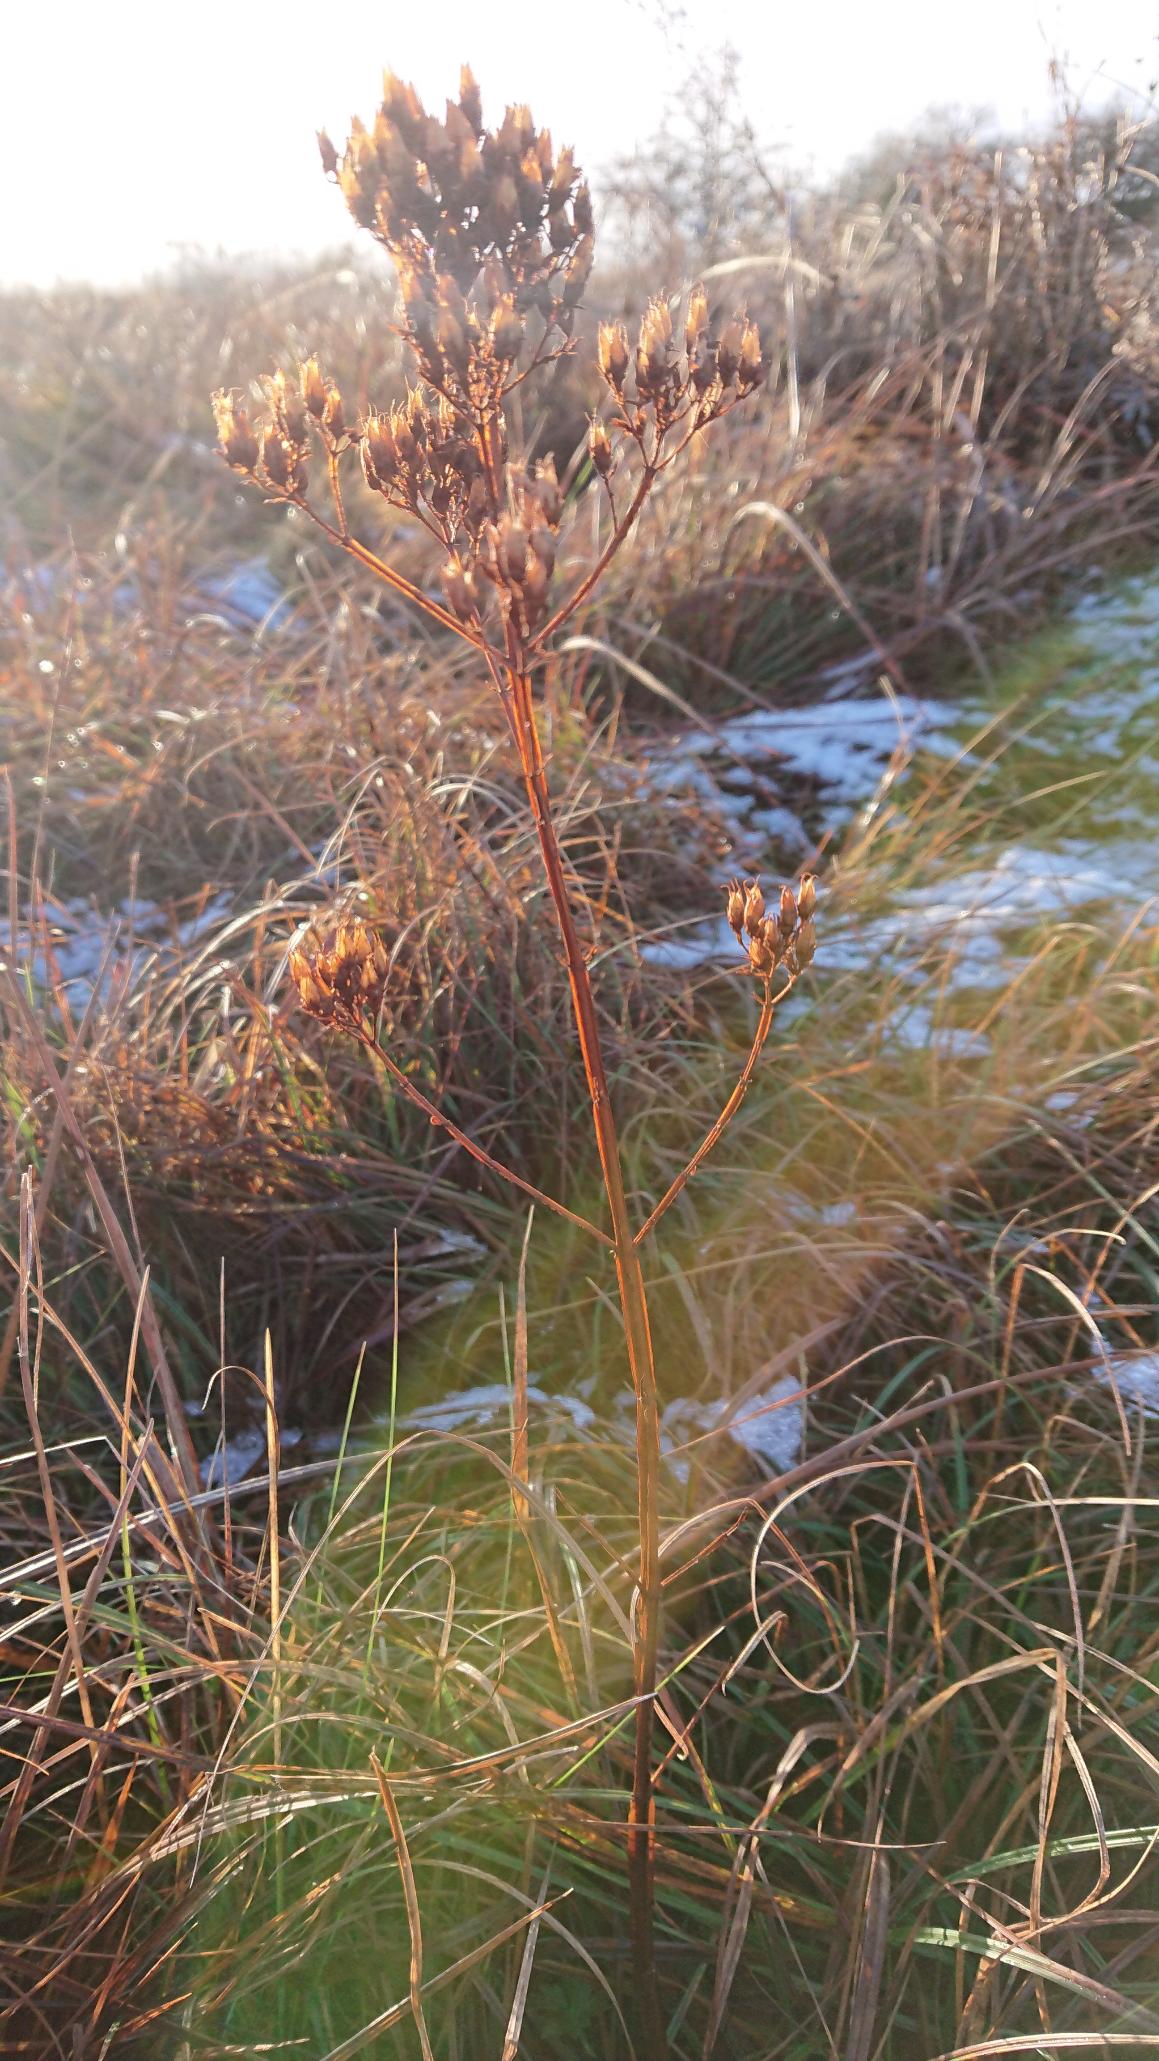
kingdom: Plantae
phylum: Tracheophyta
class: Magnoliopsida
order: Malpighiales
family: Hypericaceae
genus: Hypericum
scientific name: Hypericum tetrapterum
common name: Vinget perikon
